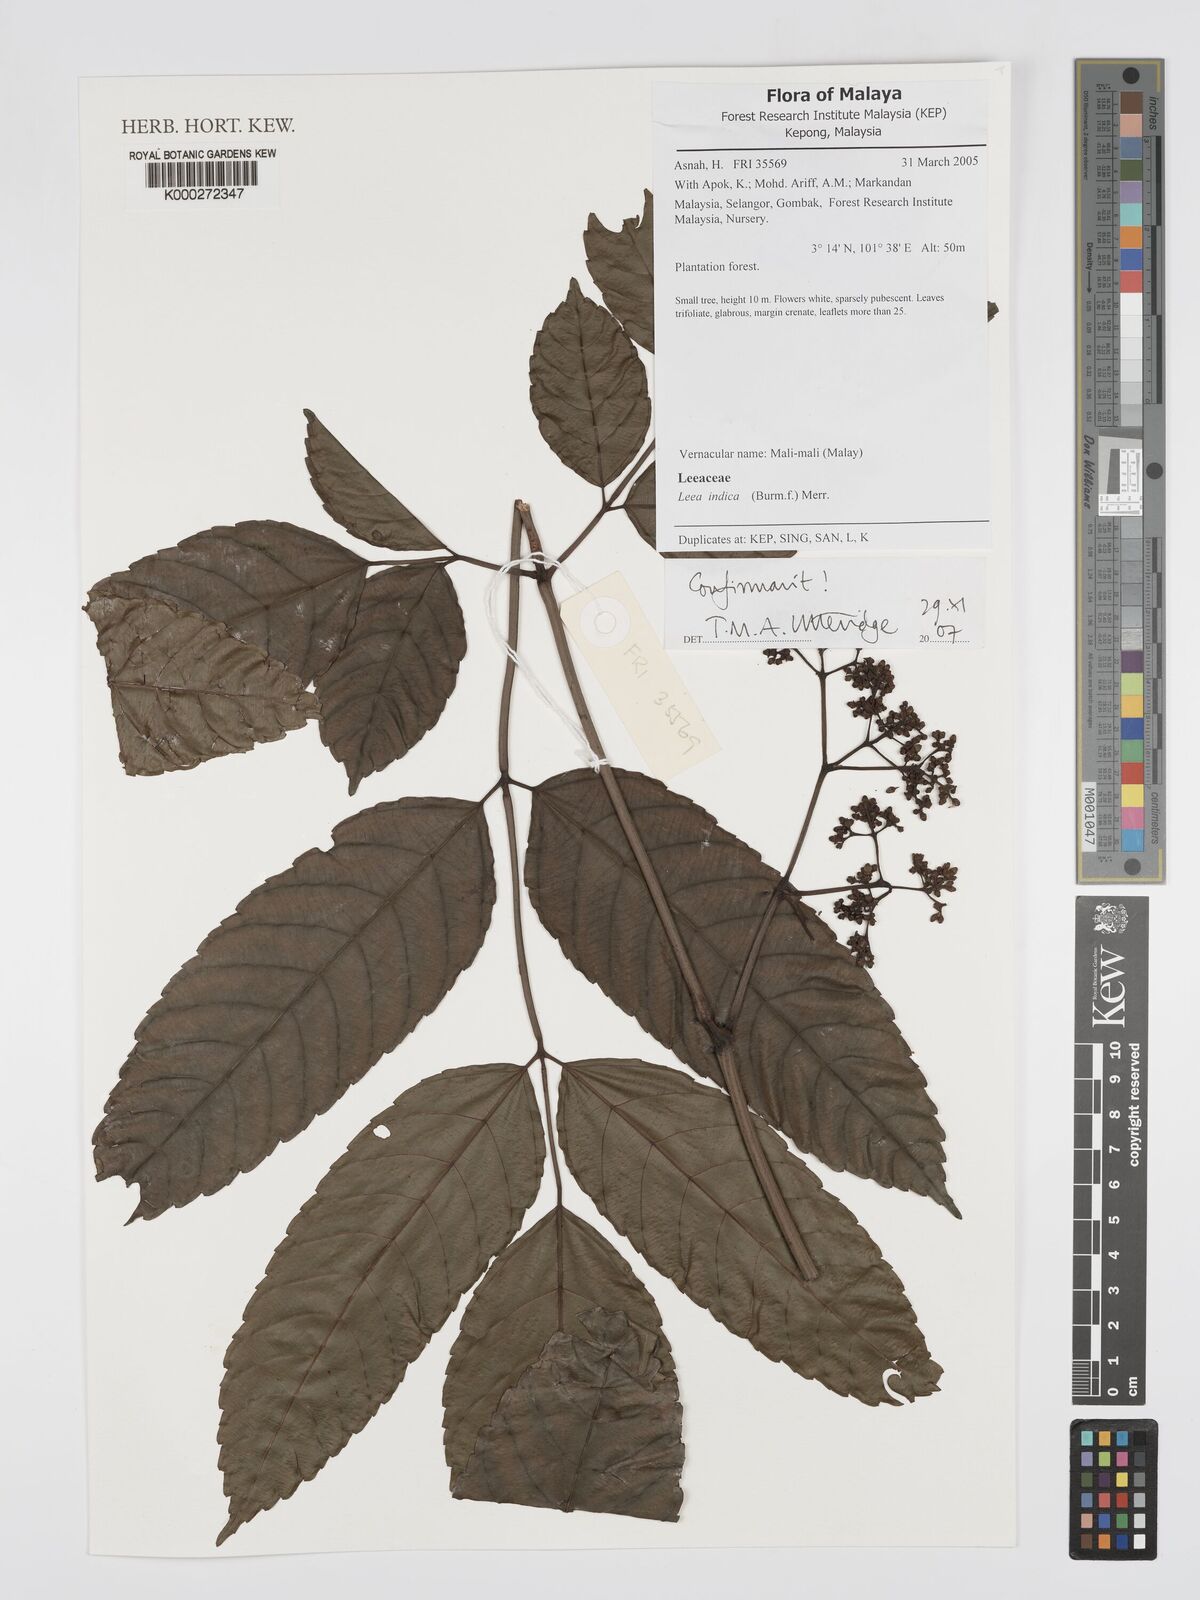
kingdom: Plantae
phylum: Tracheophyta
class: Magnoliopsida
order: Vitales
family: Vitaceae
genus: Leea
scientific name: Leea indica
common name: Bandicoot-berry
